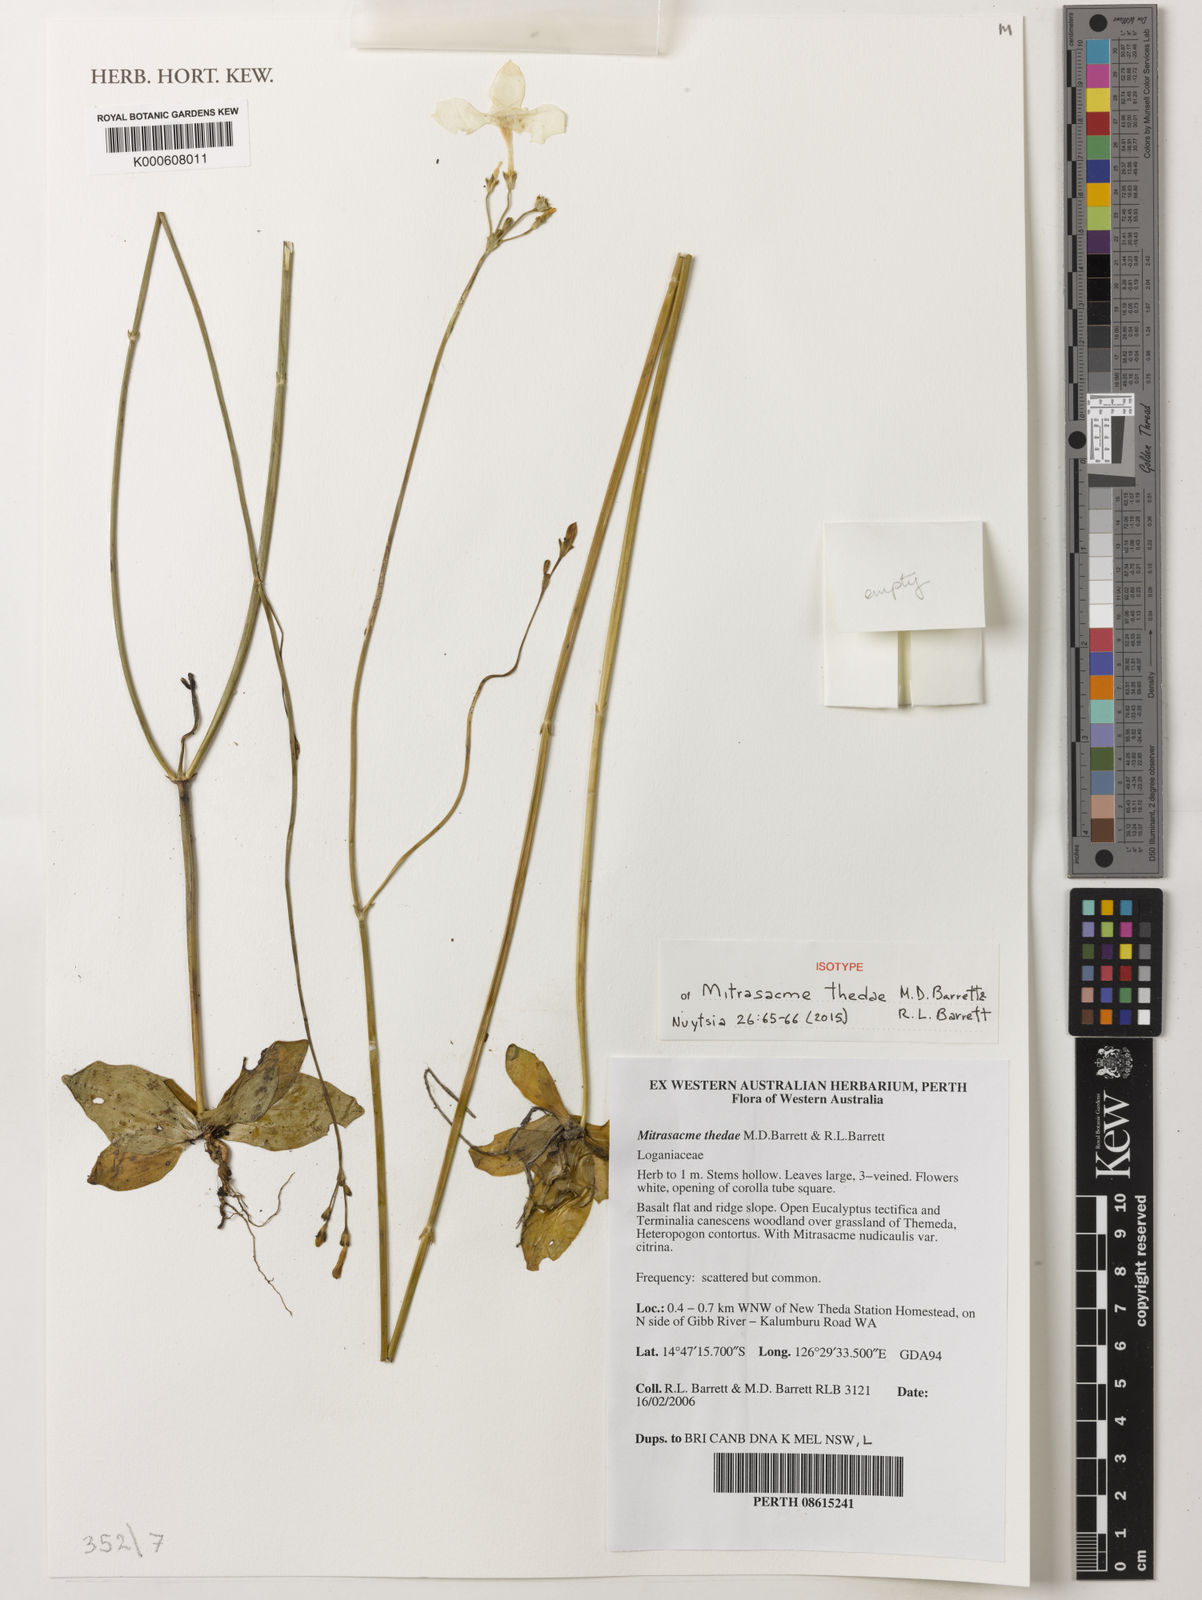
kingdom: Plantae
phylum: Tracheophyta
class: Magnoliopsida
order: Gentianales
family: Loganiaceae
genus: Mitrasacme
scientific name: Mitrasacme thedae
